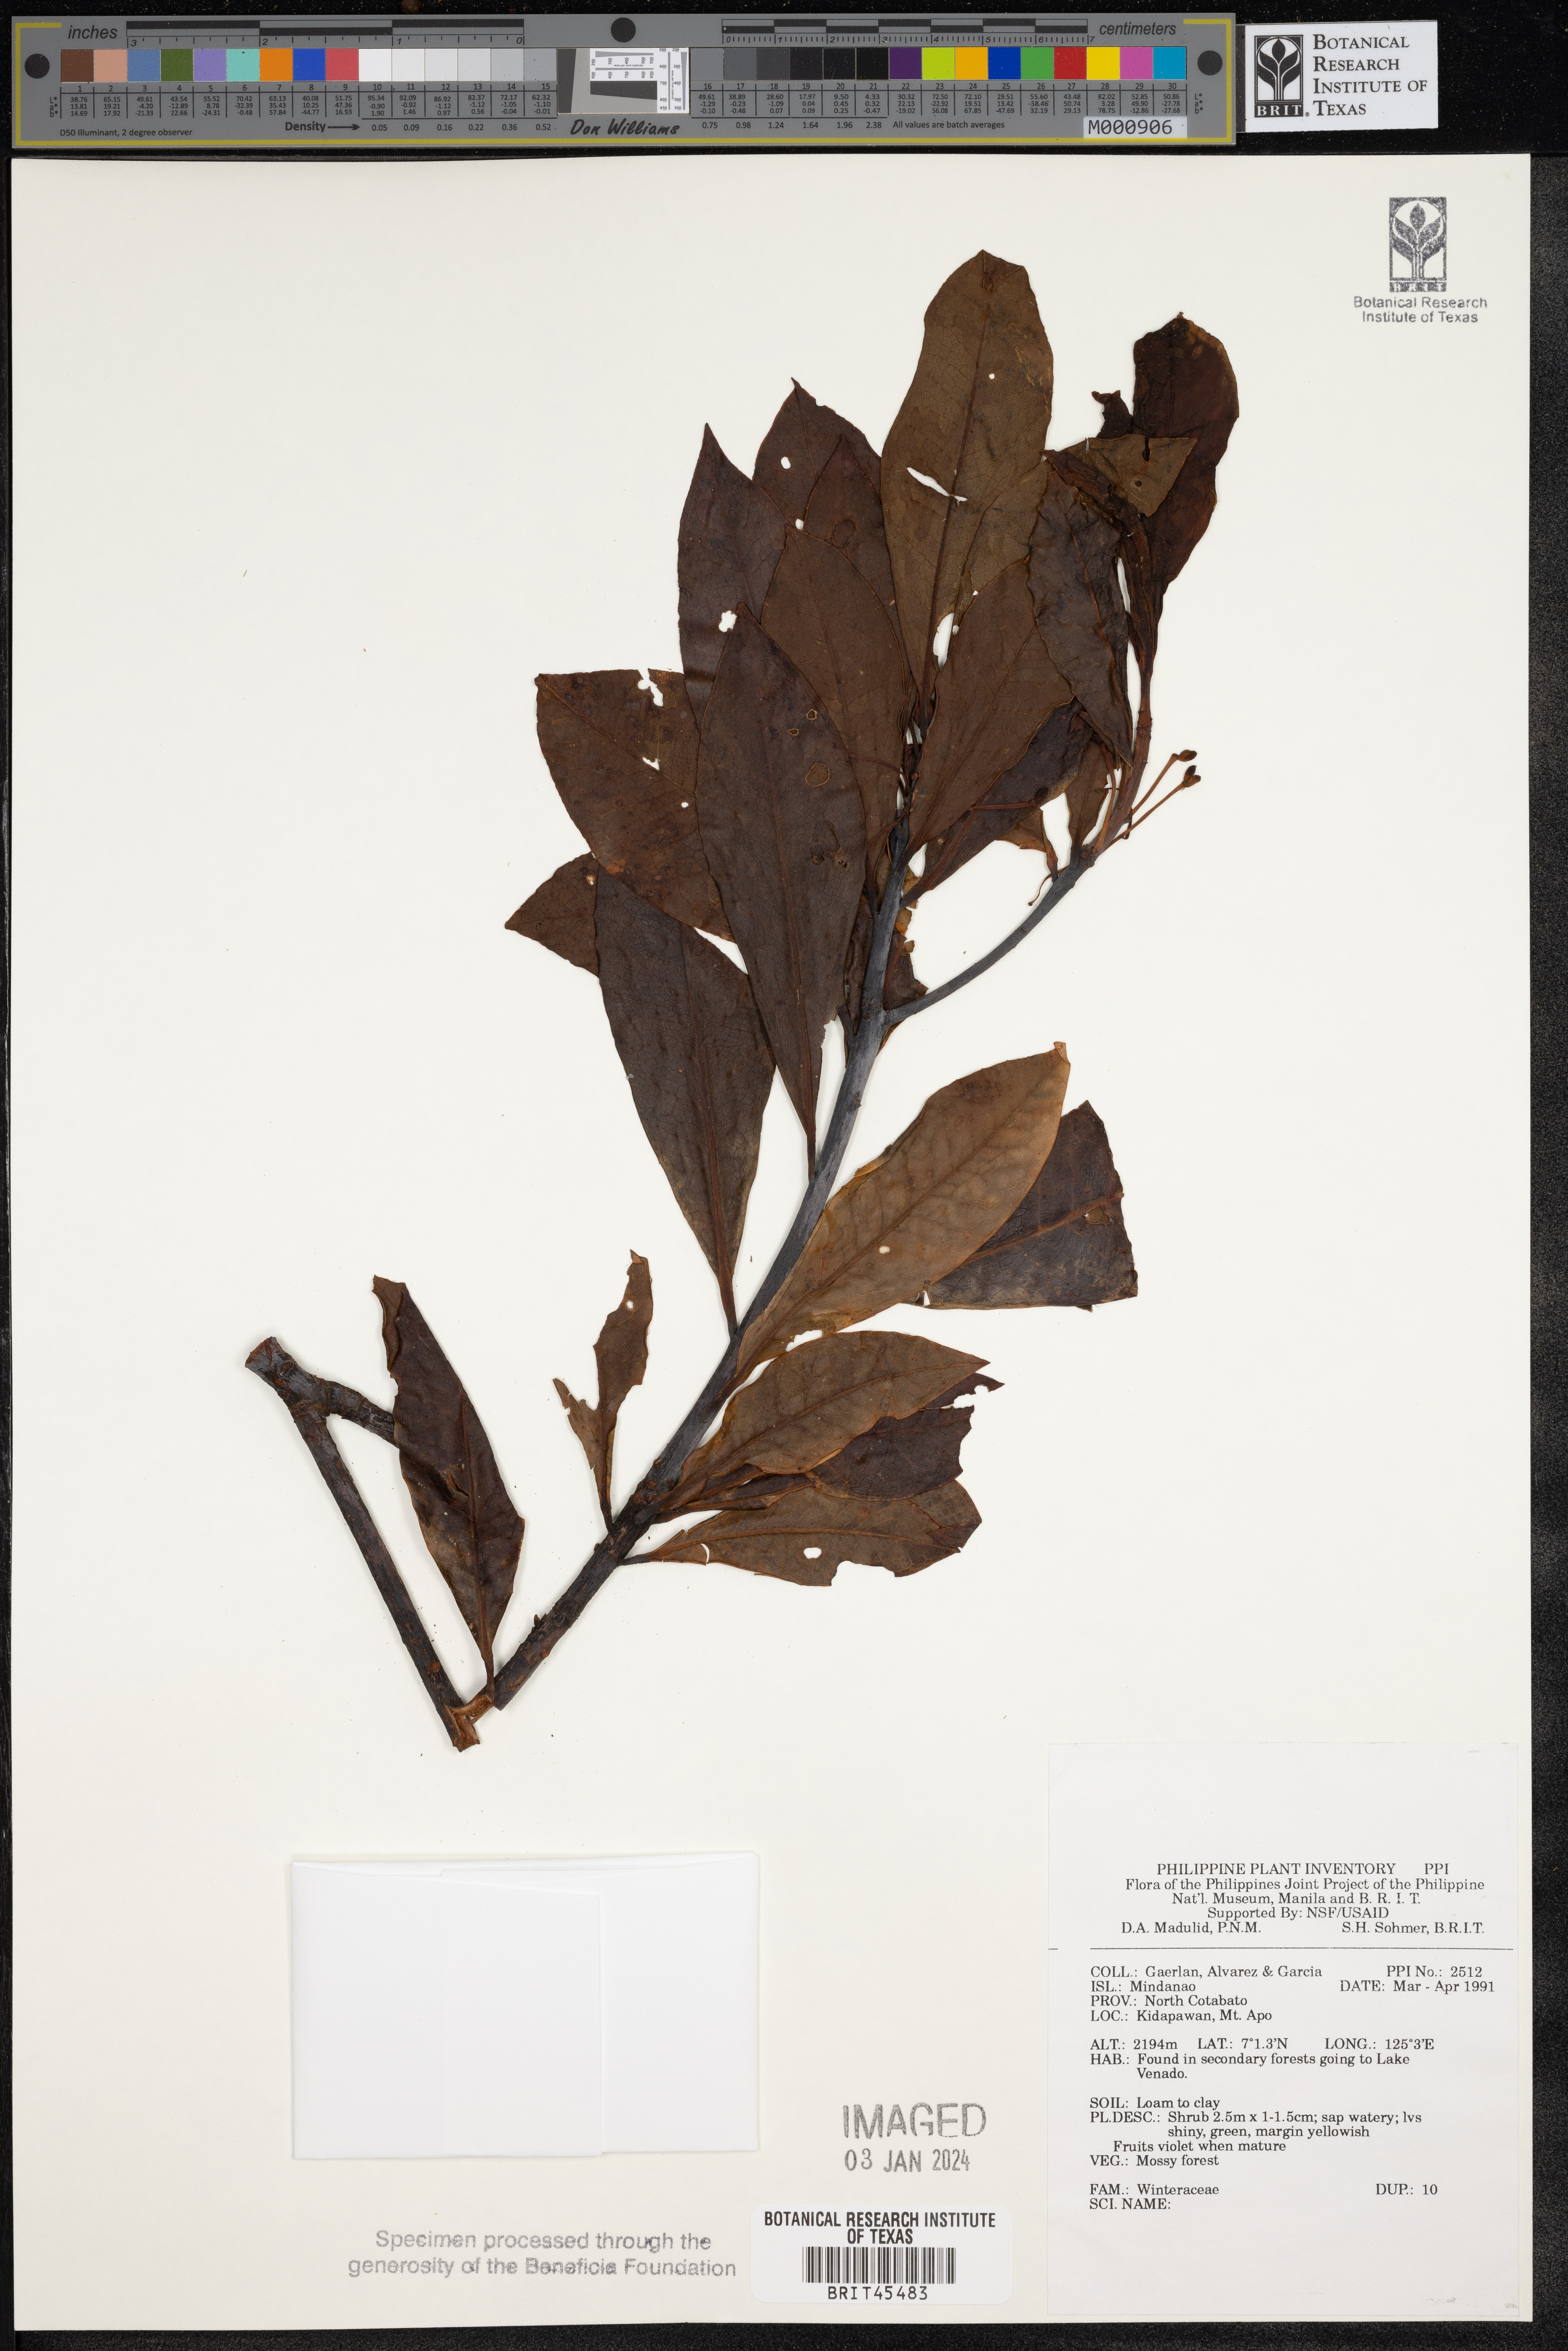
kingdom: Plantae
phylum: Tracheophyta
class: Magnoliopsida
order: Canellales
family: Winteraceae
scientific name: Winteraceae
